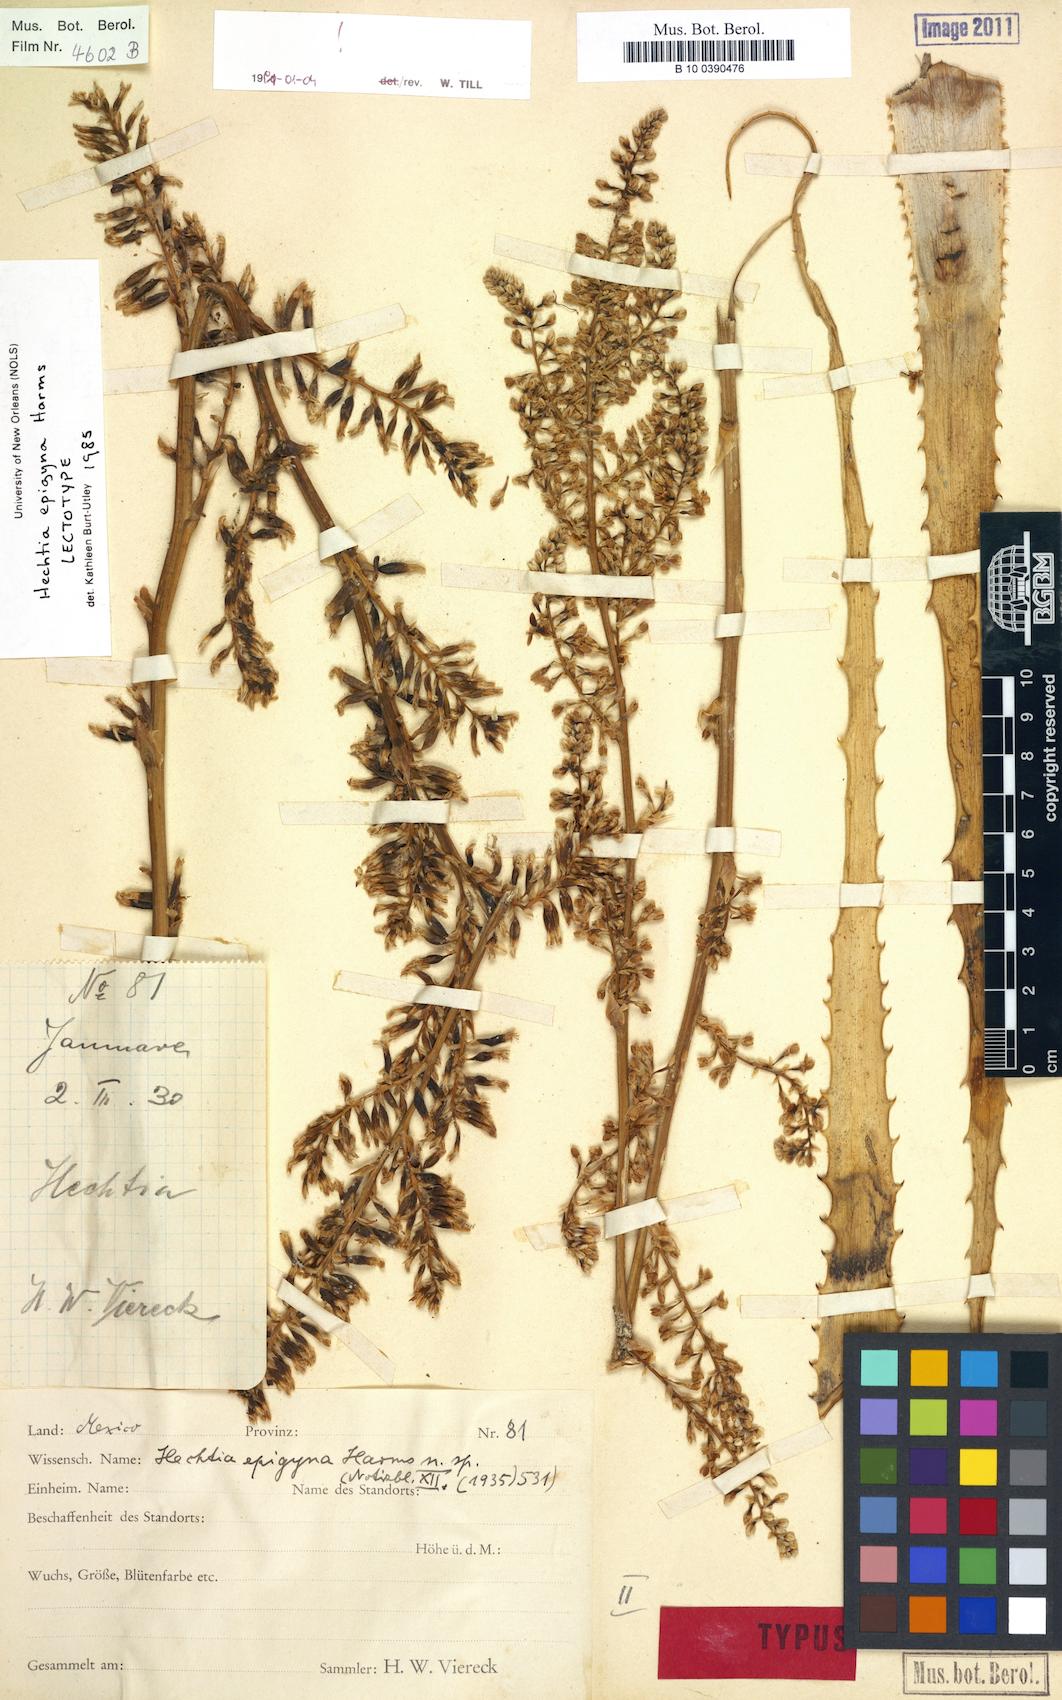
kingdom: Plantae
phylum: Tracheophyta
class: Liliopsida
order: Poales
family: Bromeliaceae
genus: Hechtia
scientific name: Hechtia epigyna
